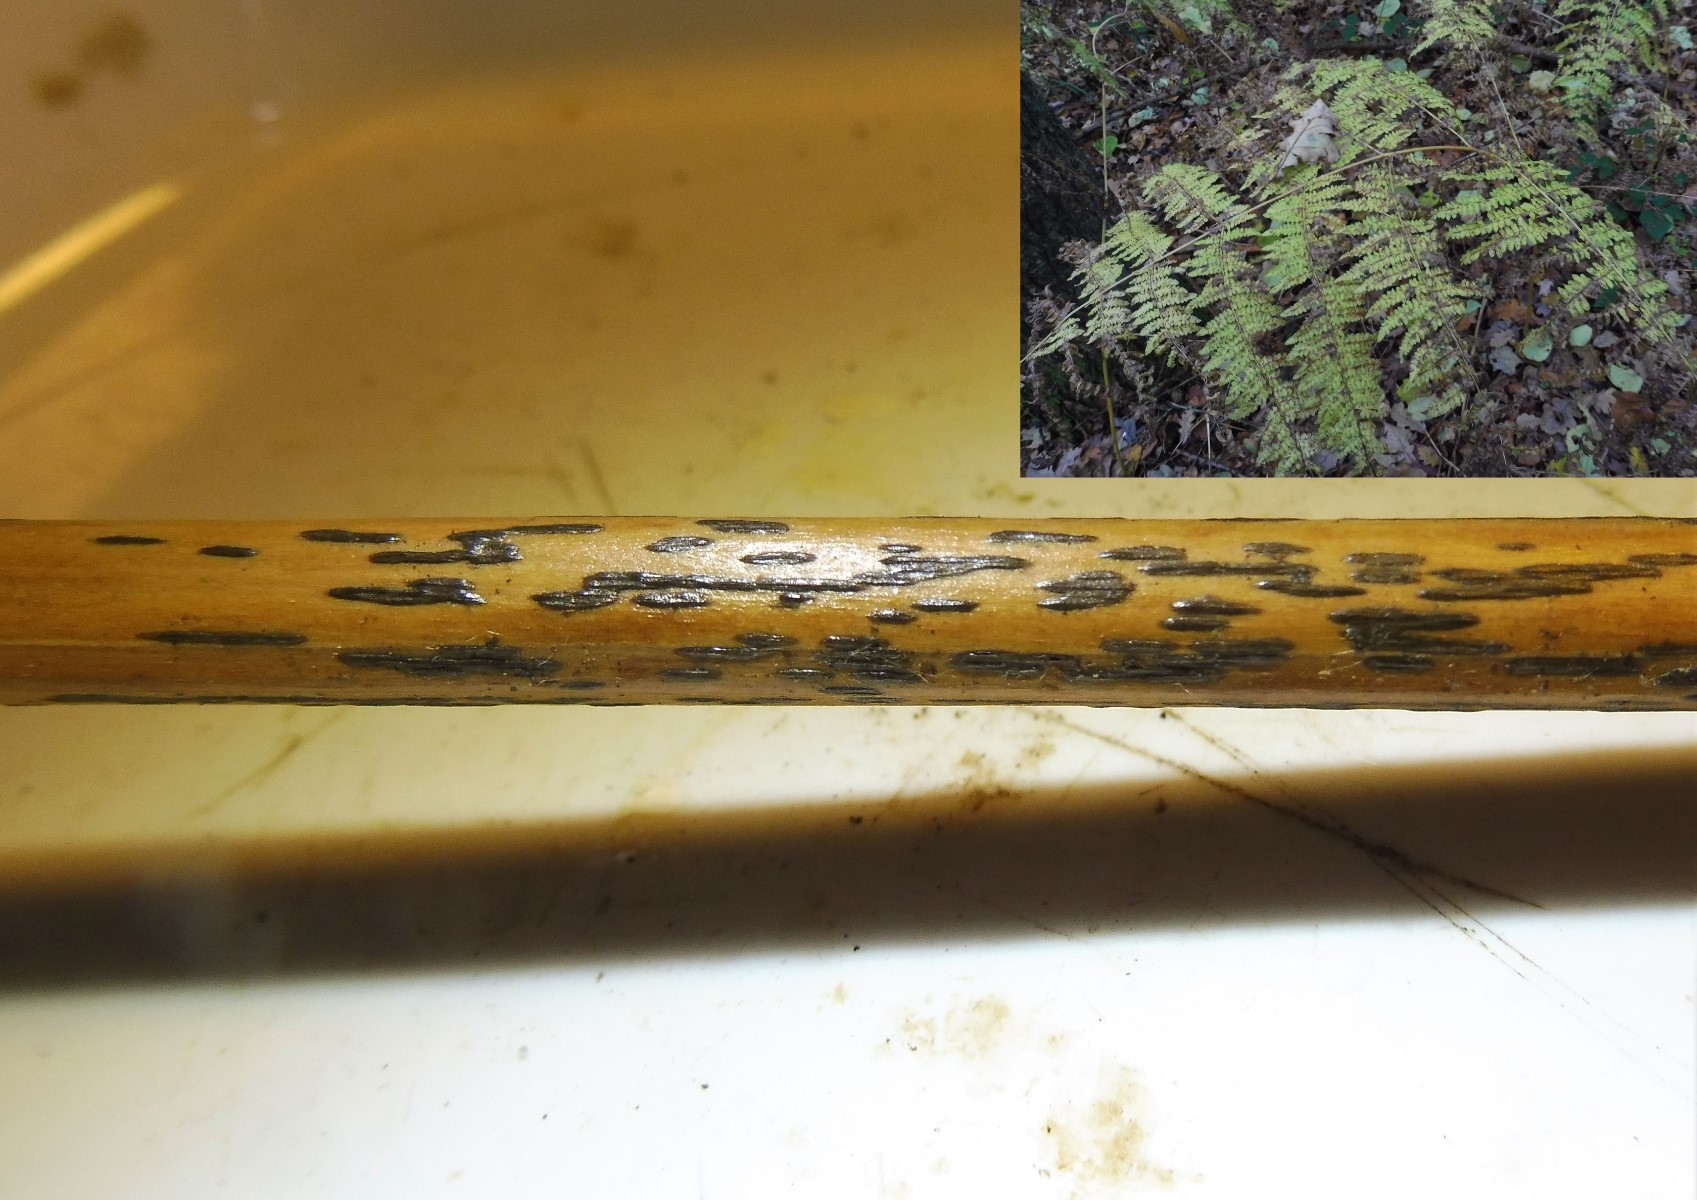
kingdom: Fungi
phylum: Ascomycota
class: Dothideomycetes
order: Pleosporales
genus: Rhopographus
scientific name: Rhopographus filicinus
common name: Bracken map
